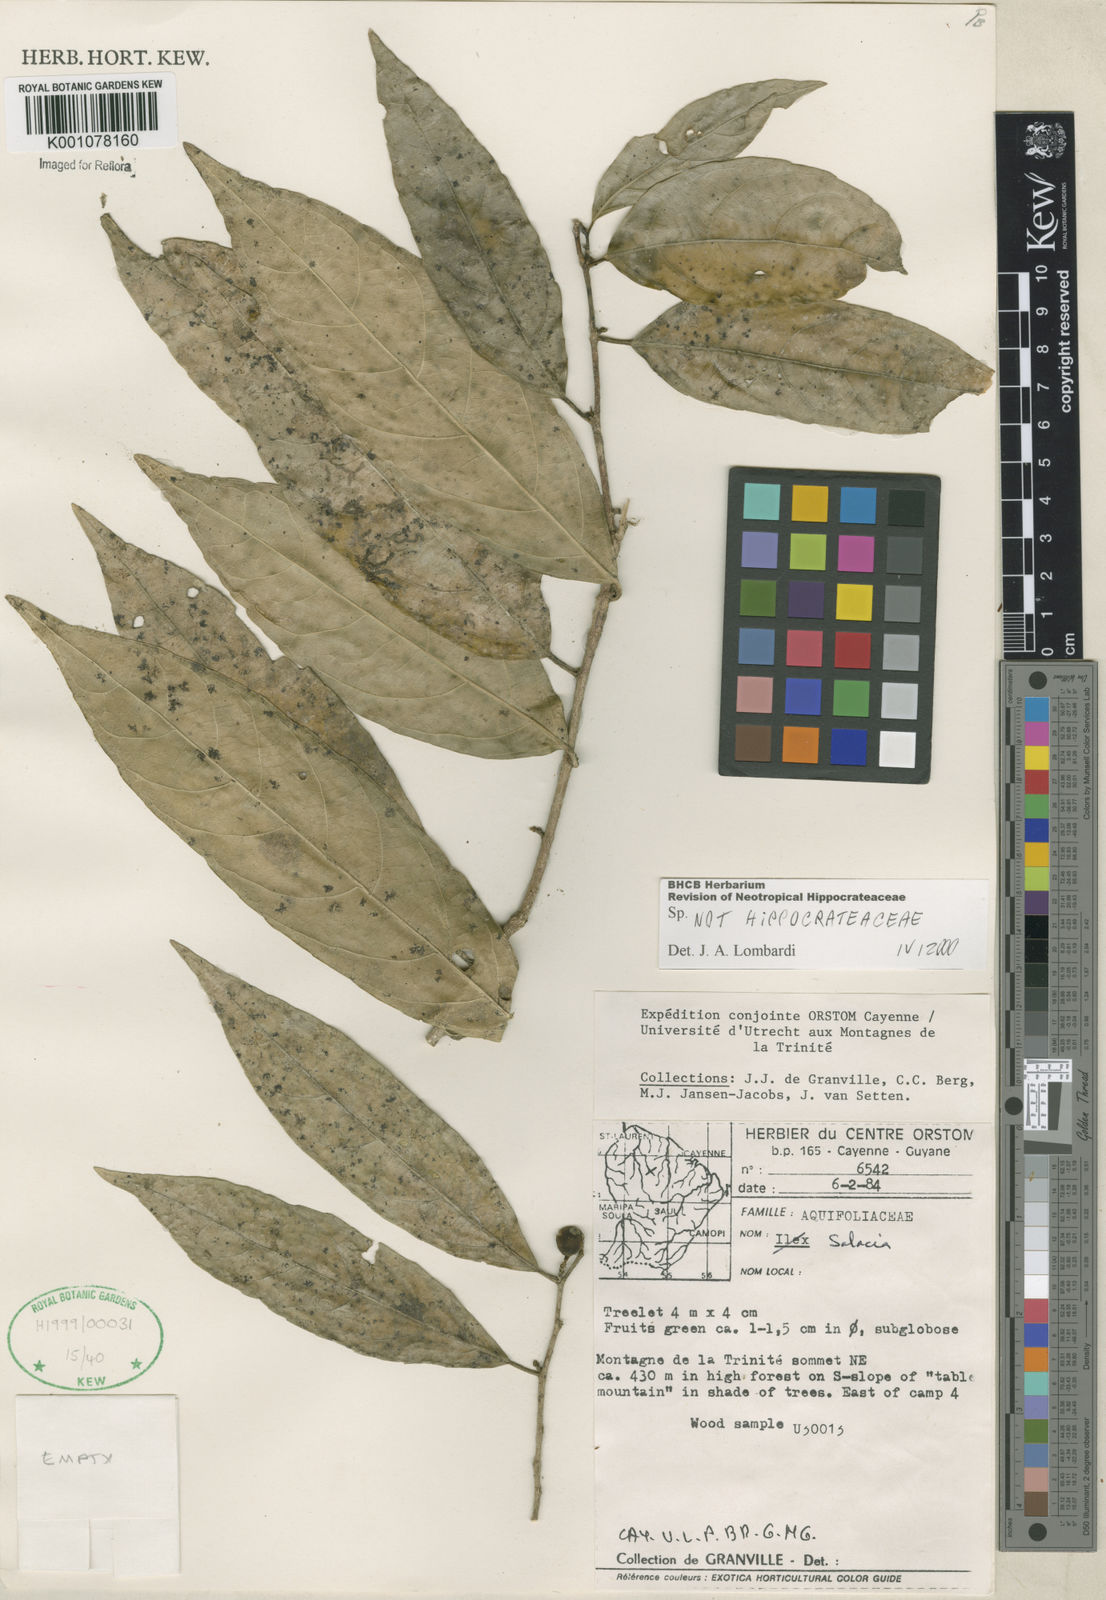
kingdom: Plantae
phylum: Tracheophyta
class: Magnoliopsida
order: Malpighiales
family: Violaceae
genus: Gloeospermum
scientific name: Gloeospermum
